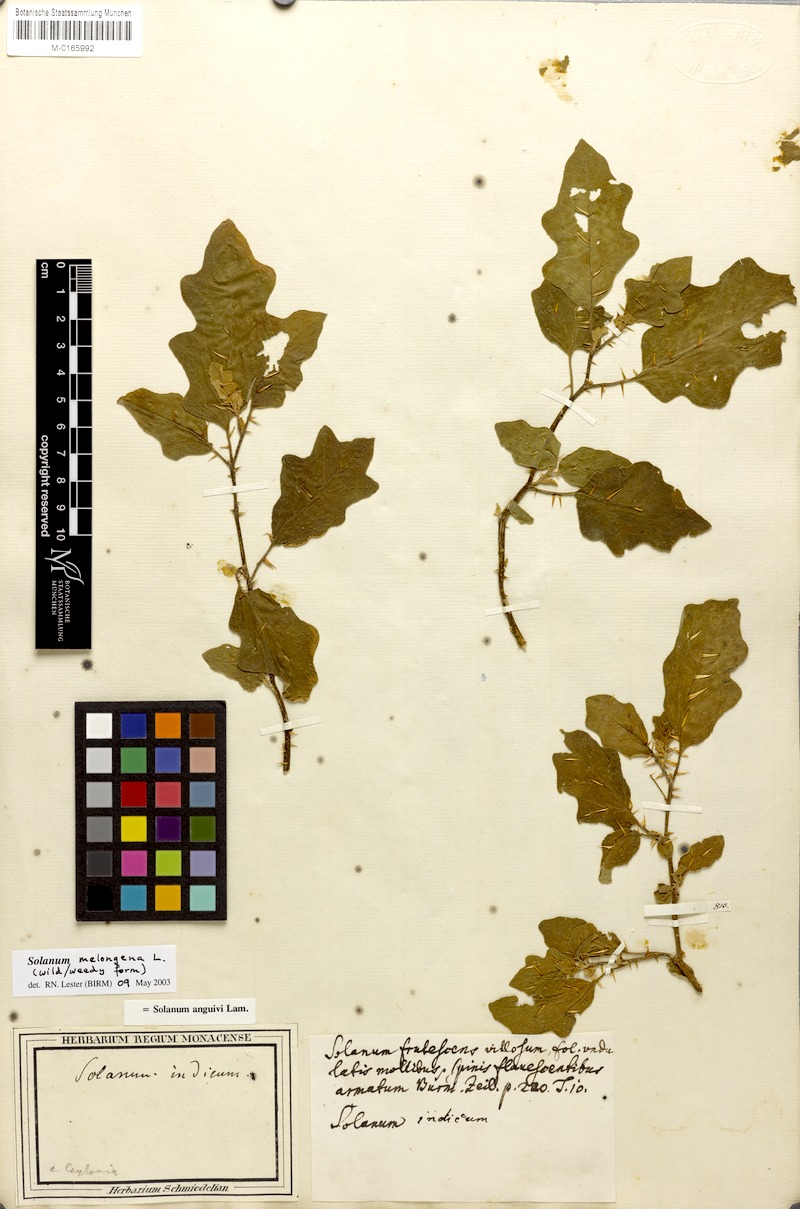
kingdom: Plantae
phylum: Tracheophyta
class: Magnoliopsida
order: Solanales
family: Solanaceae
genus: Solanum
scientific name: Solanum melongena
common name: Eggplant
